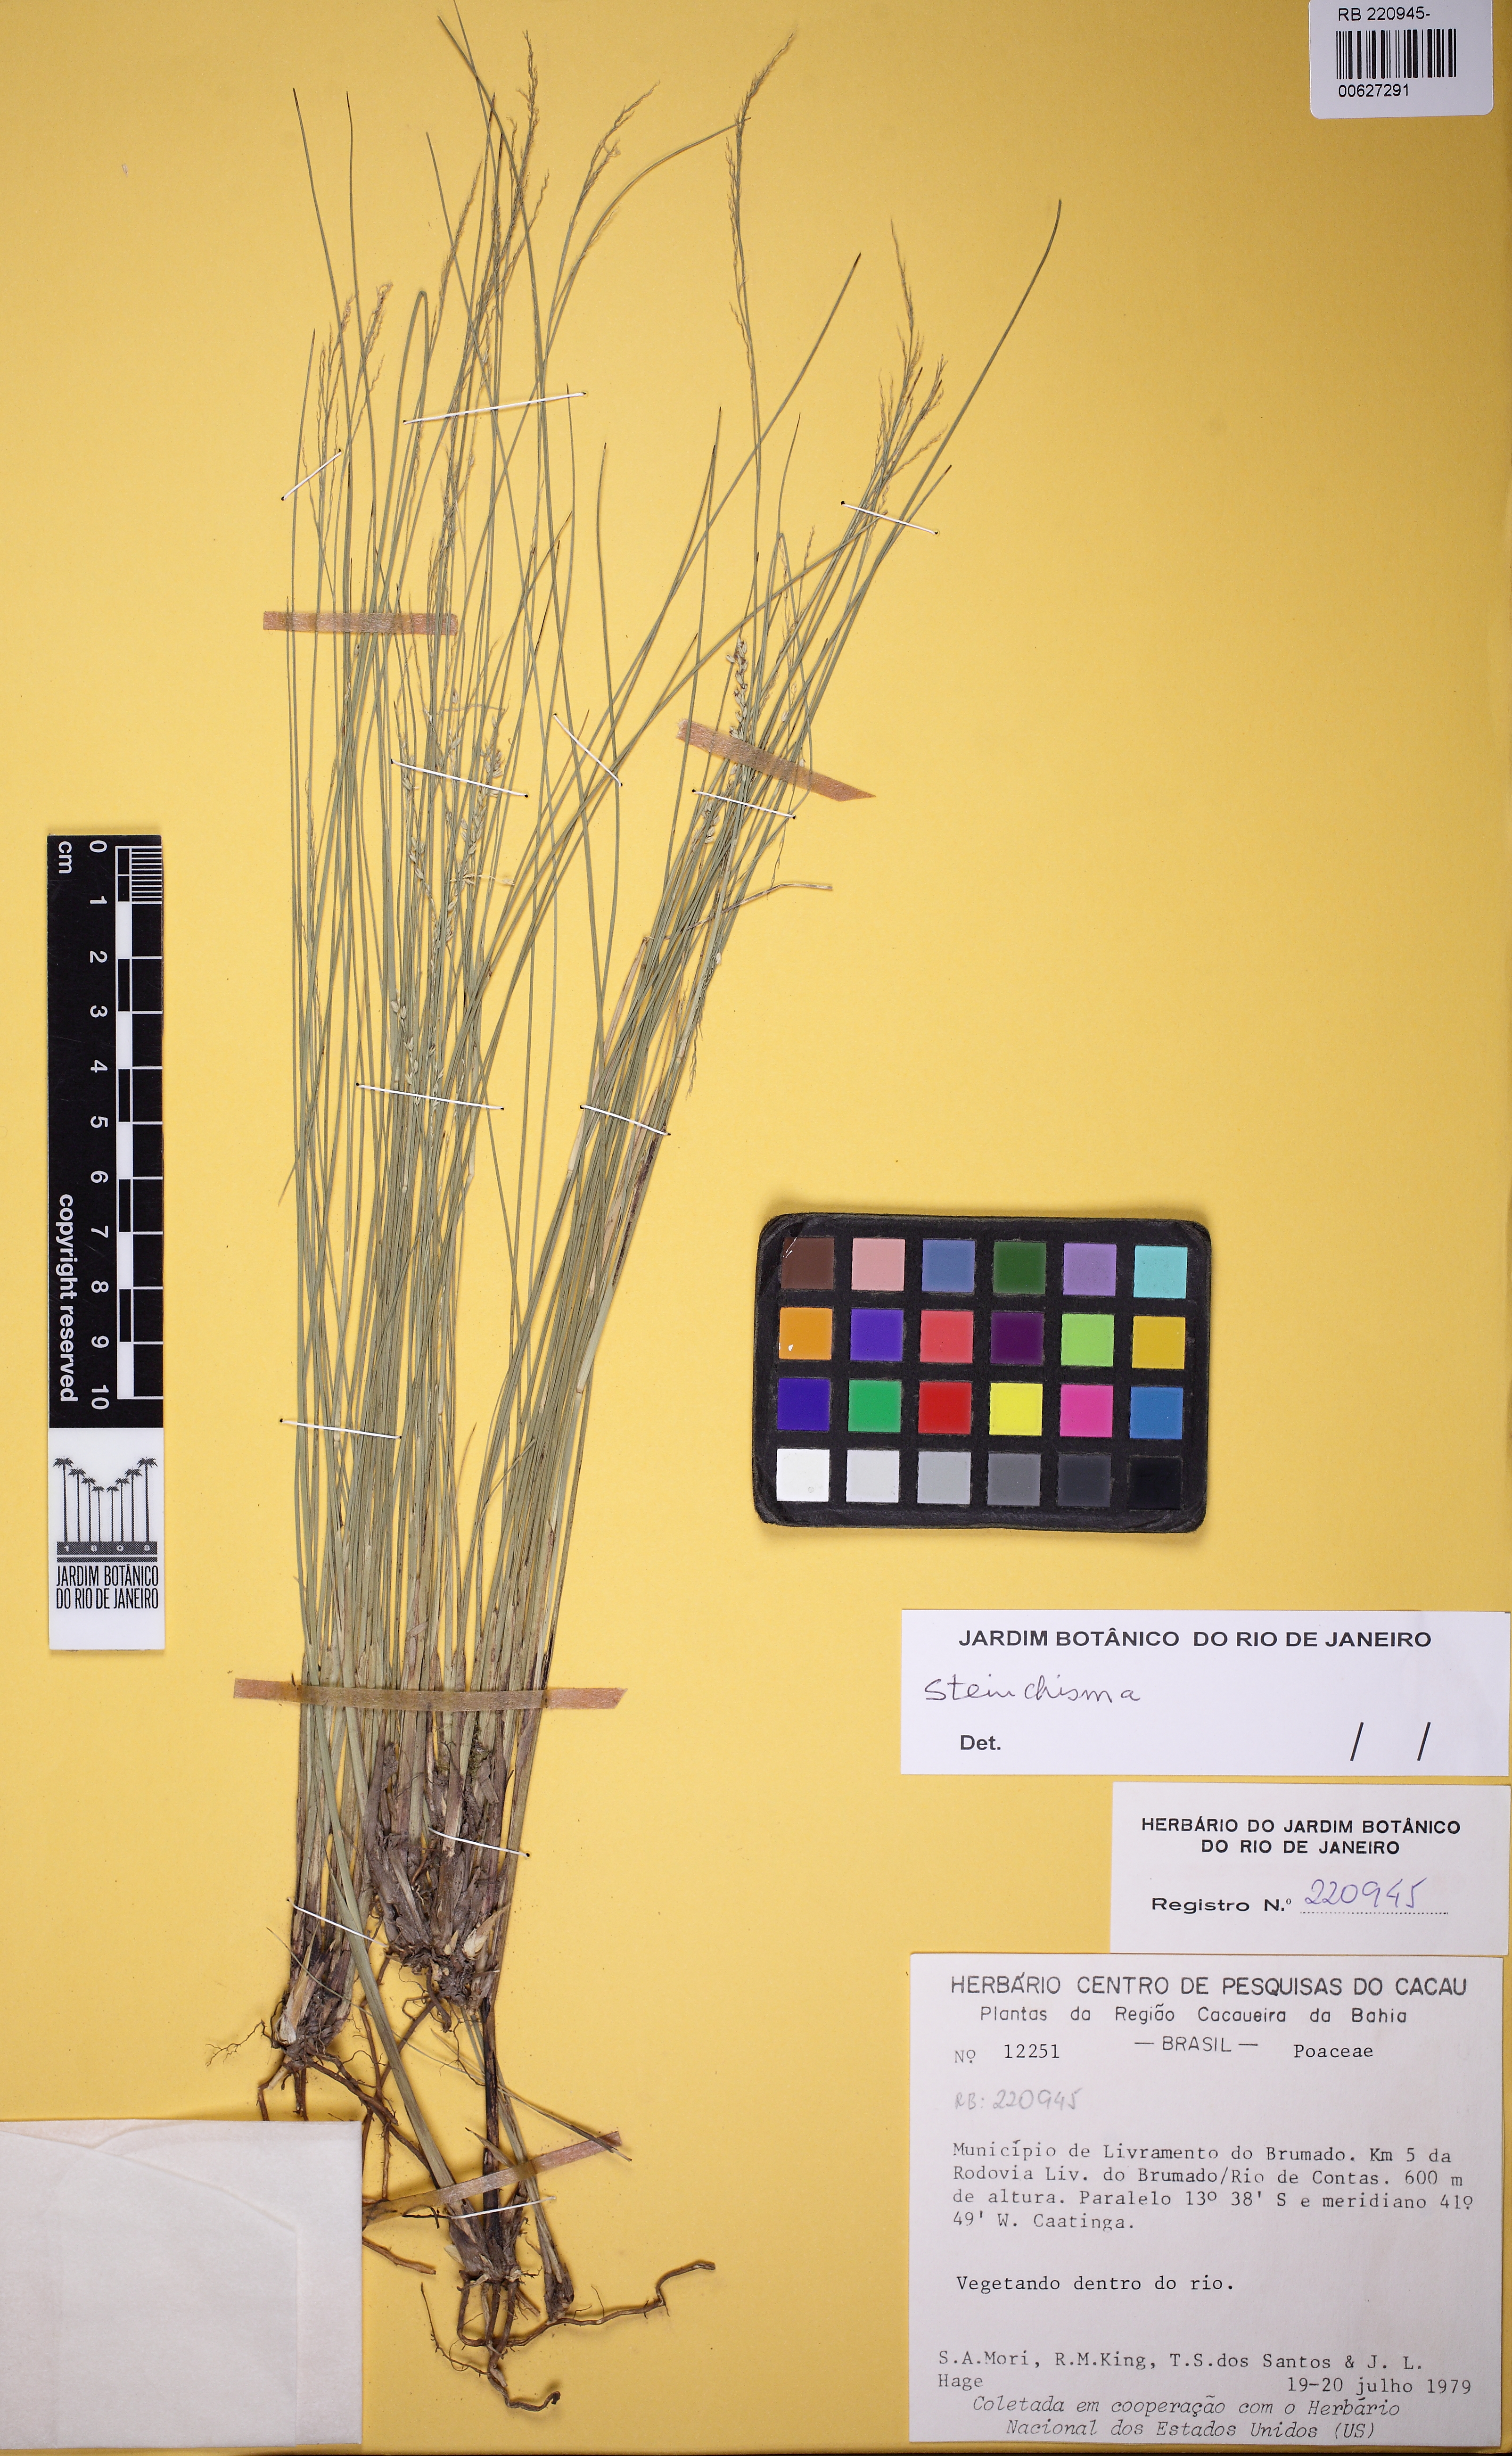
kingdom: Plantae
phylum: Tracheophyta
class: Liliopsida
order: Poales
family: Poaceae
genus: Steinchisma
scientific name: Steinchisma
